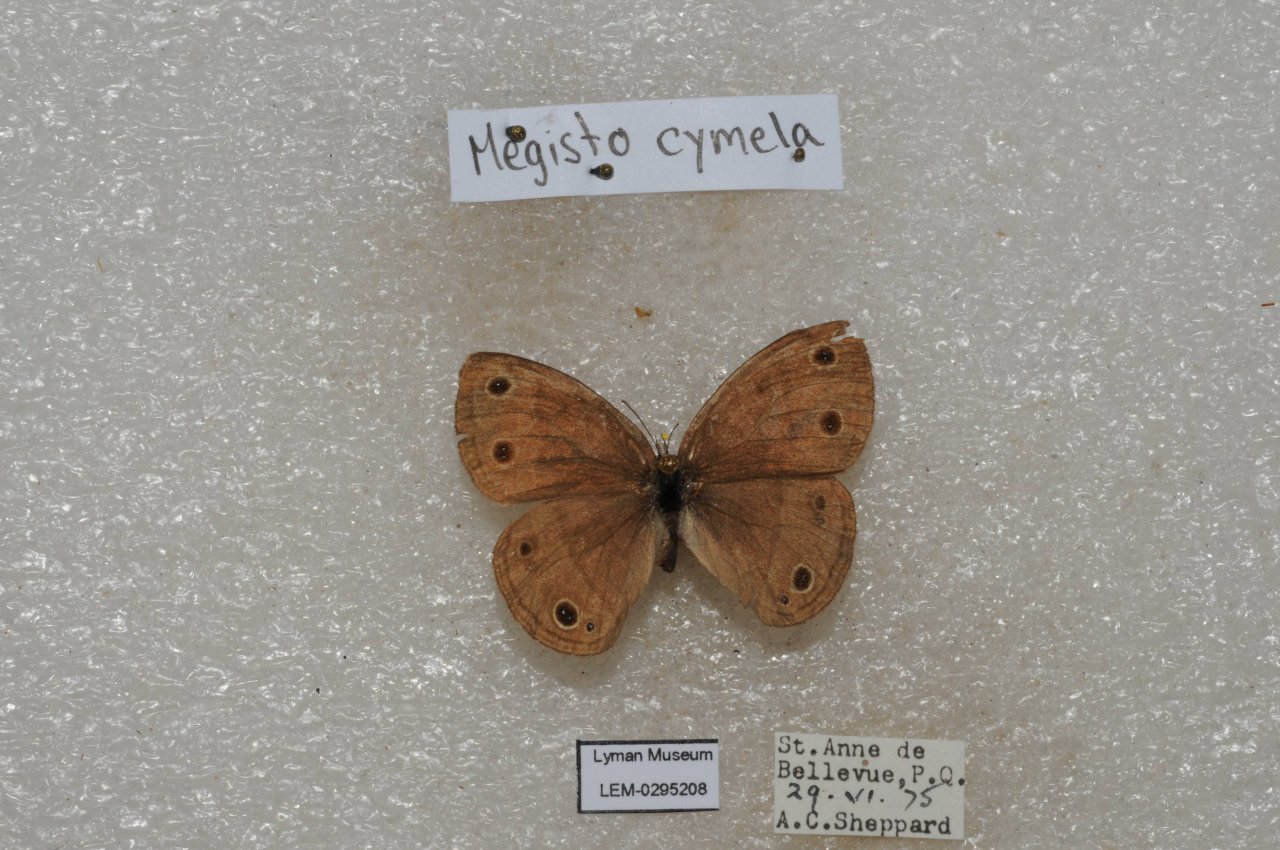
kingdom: Animalia
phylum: Arthropoda
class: Insecta
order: Lepidoptera
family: Nymphalidae
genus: Euptychia
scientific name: Euptychia cymela
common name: Little Wood Satyr
